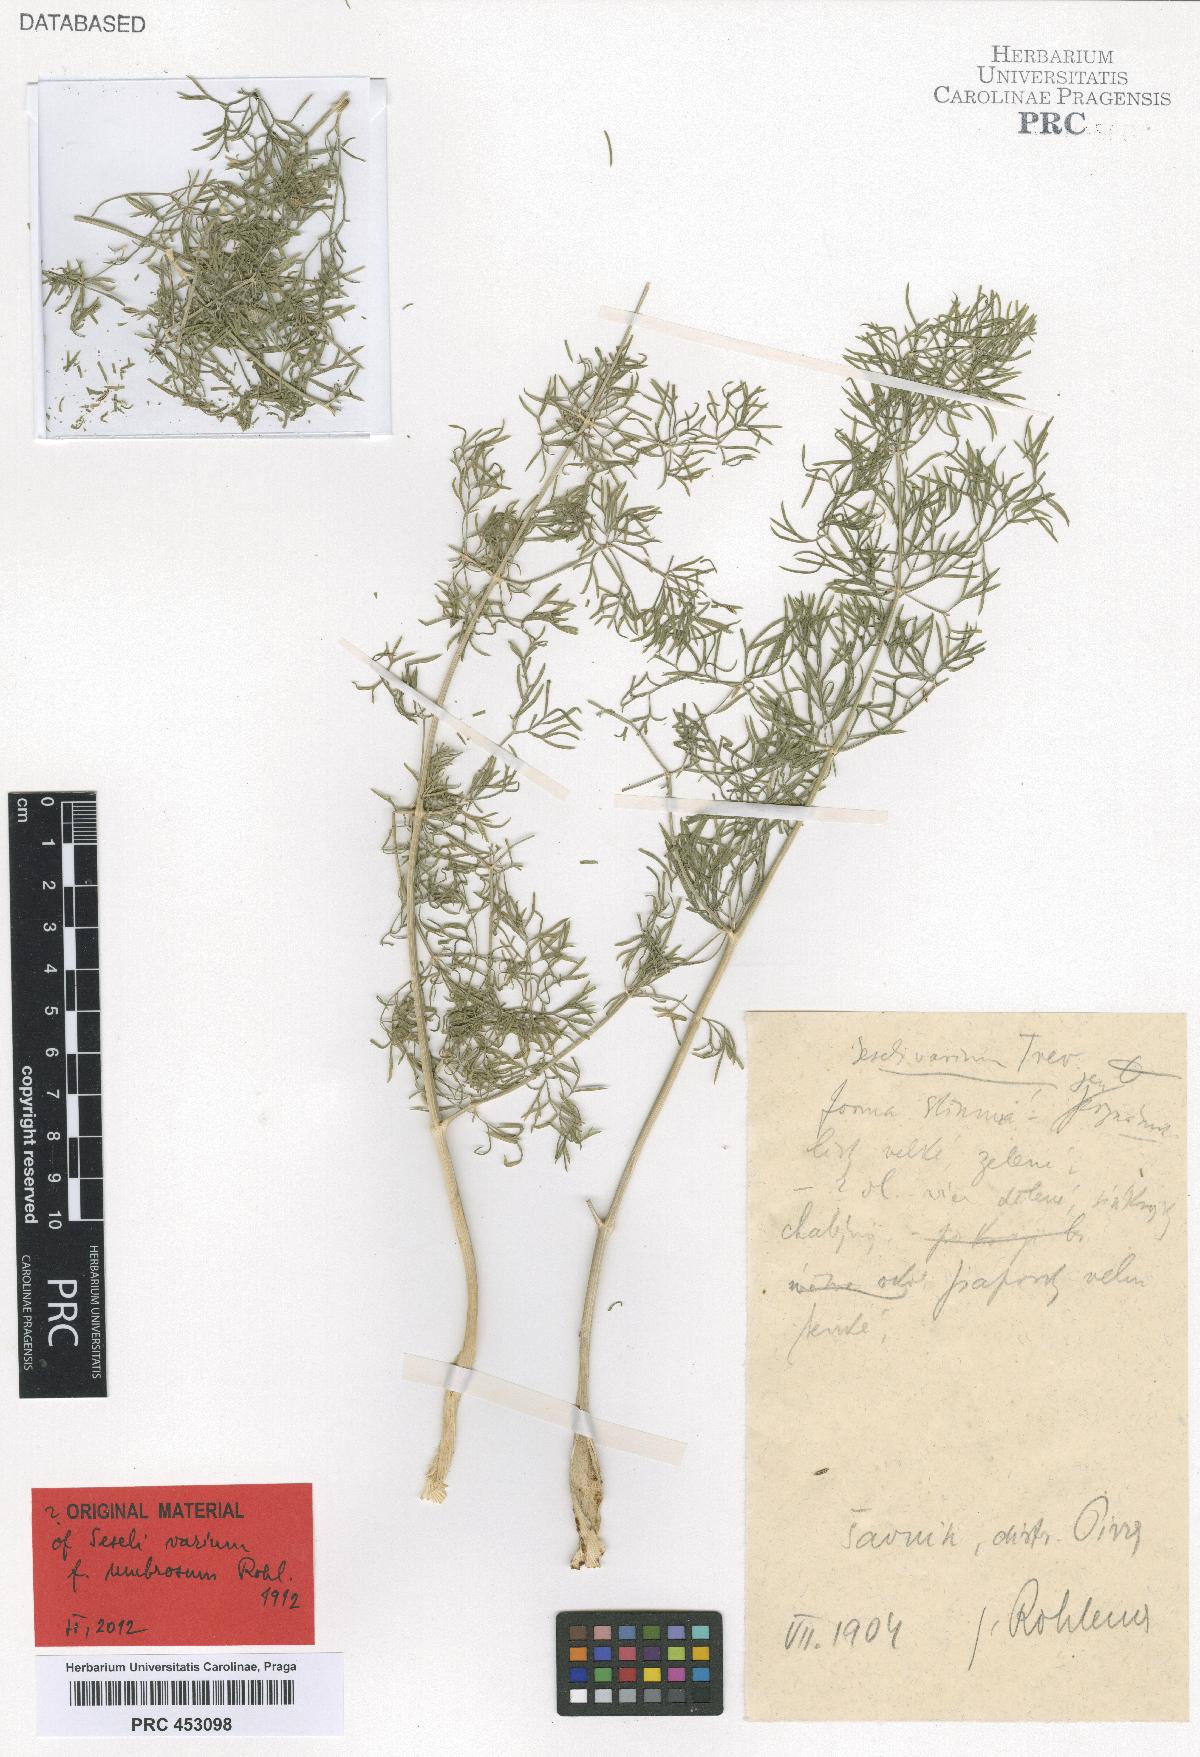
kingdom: Plantae
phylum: Tracheophyta
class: Magnoliopsida
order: Apiales
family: Apiaceae
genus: Seseli
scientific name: Seseli pallasii
